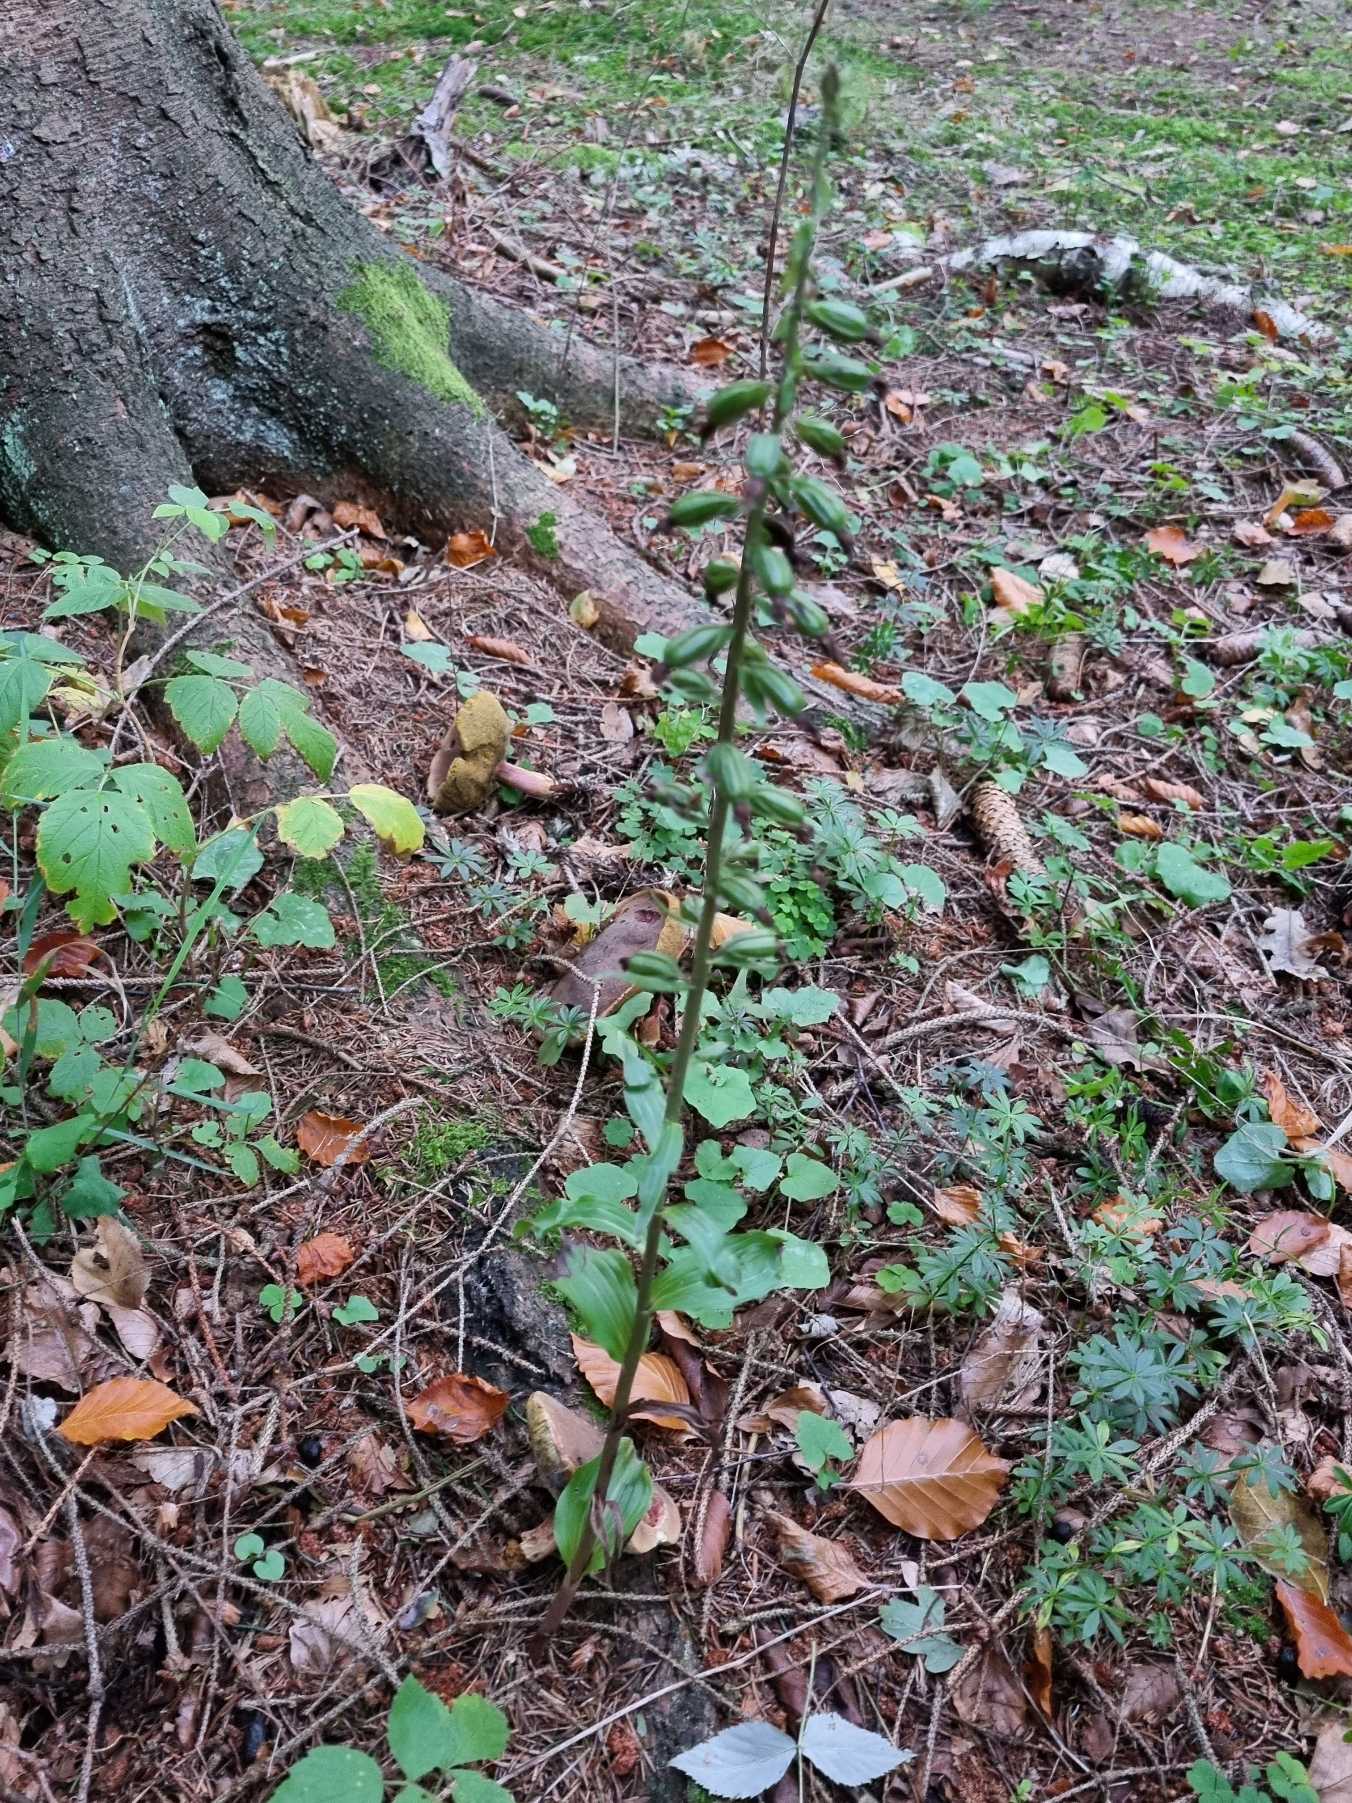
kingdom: Plantae
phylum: Tracheophyta
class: Liliopsida
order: Asparagales
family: Orchidaceae
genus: Epipactis
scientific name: Epipactis helleborine
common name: Skov-hullæbe
